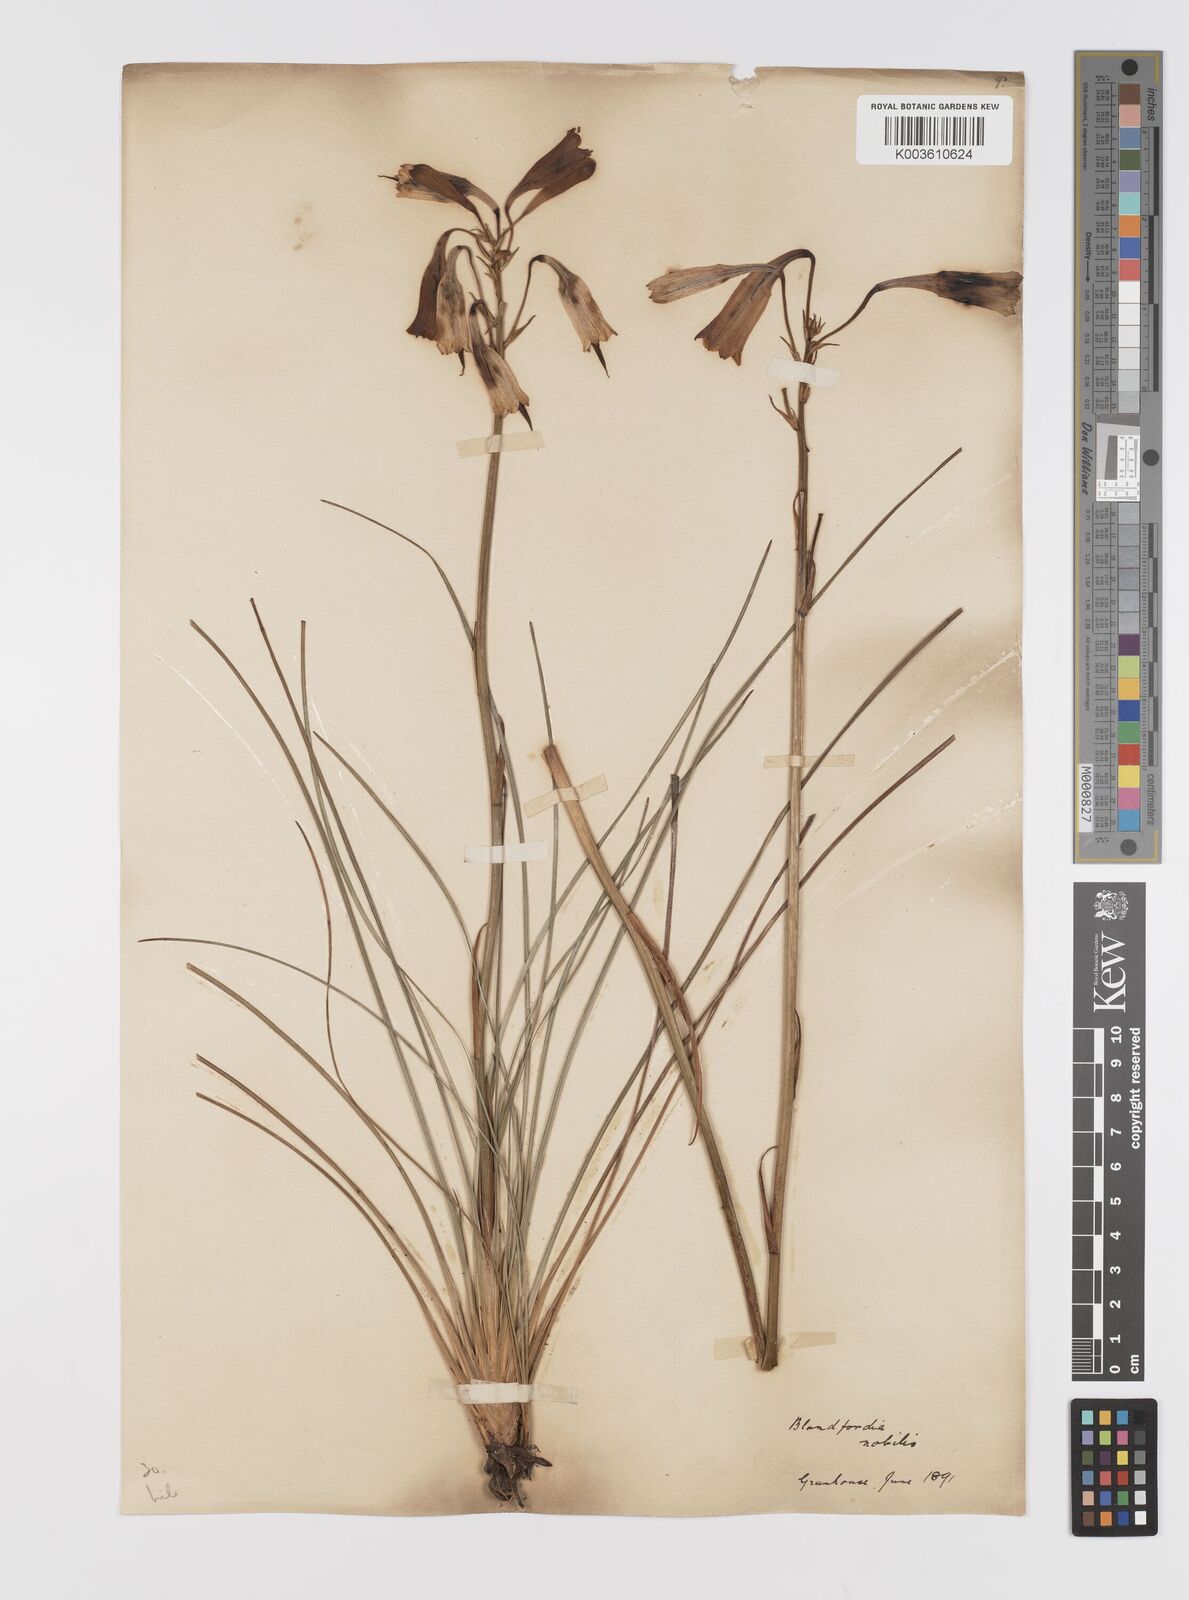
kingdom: Plantae
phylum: Tracheophyta
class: Liliopsida
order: Asparagales
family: Blandfordiaceae
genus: Blandfordia
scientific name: Blandfordia nobilis
